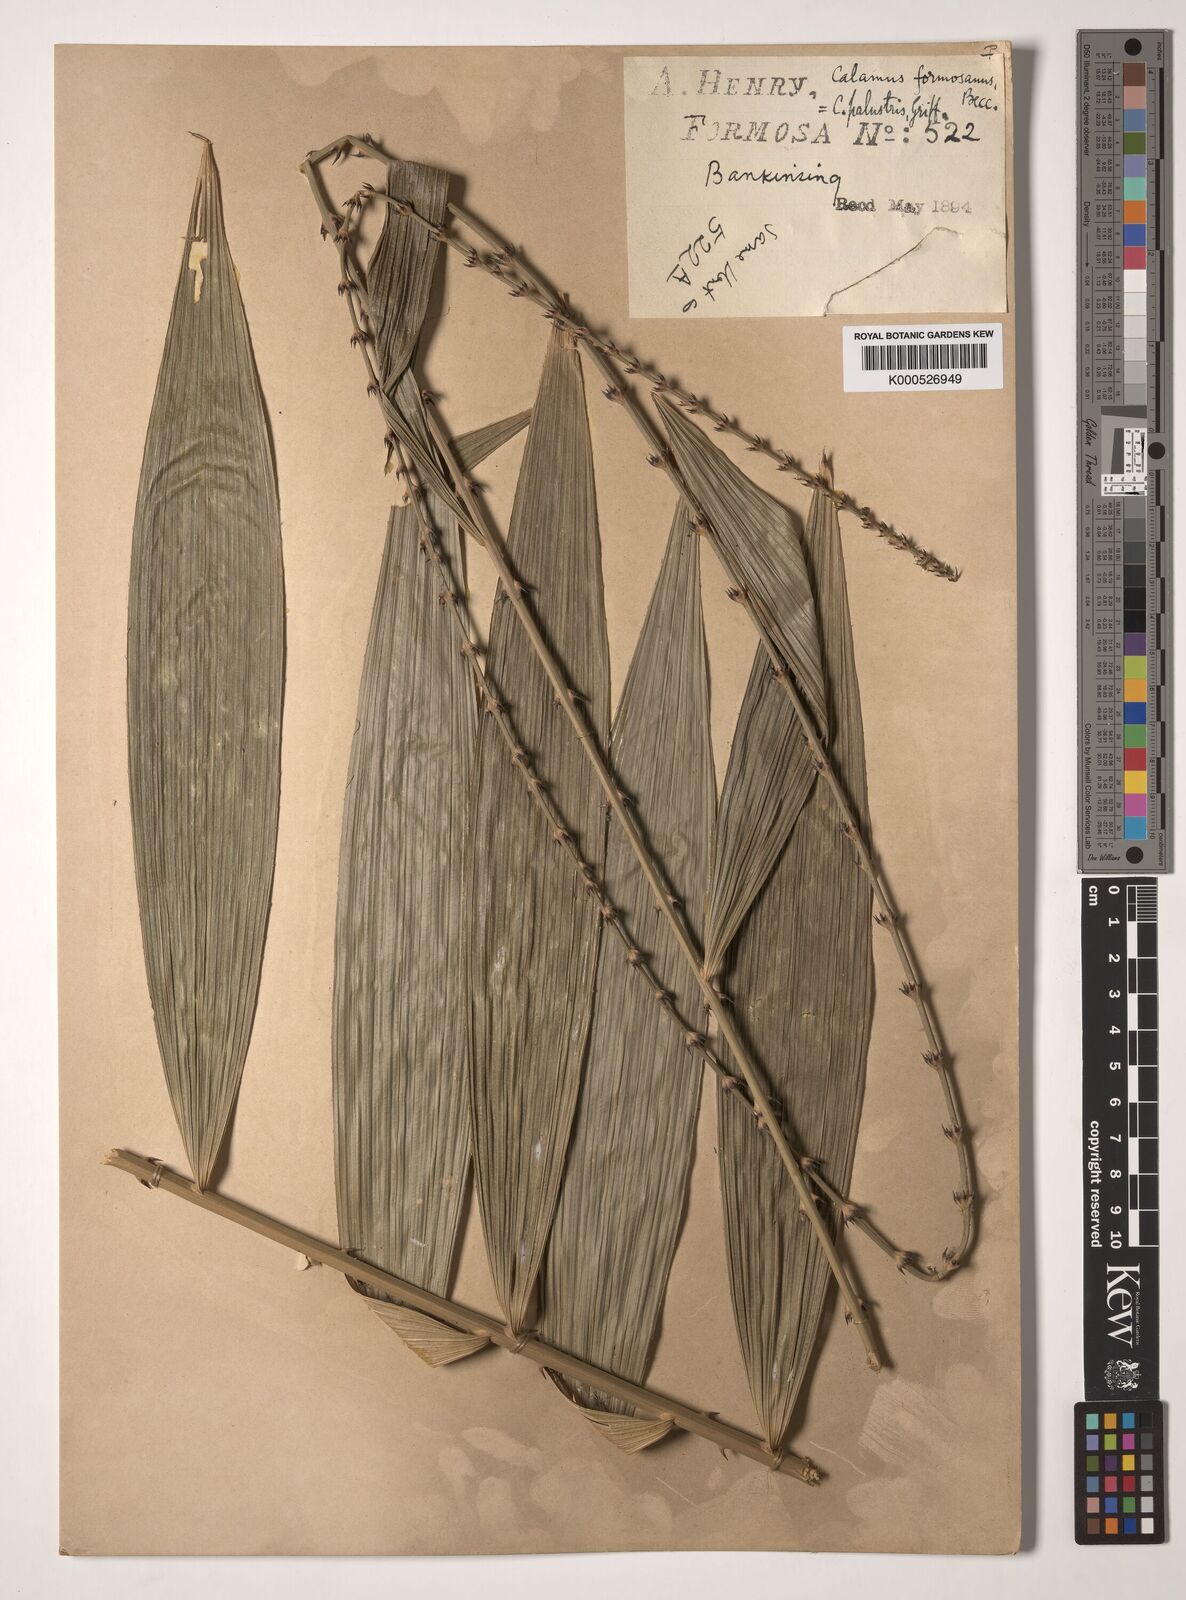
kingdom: Plantae
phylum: Tracheophyta
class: Liliopsida
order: Arecales
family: Arecaceae
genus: Calamus
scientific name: Calamus formosanus
